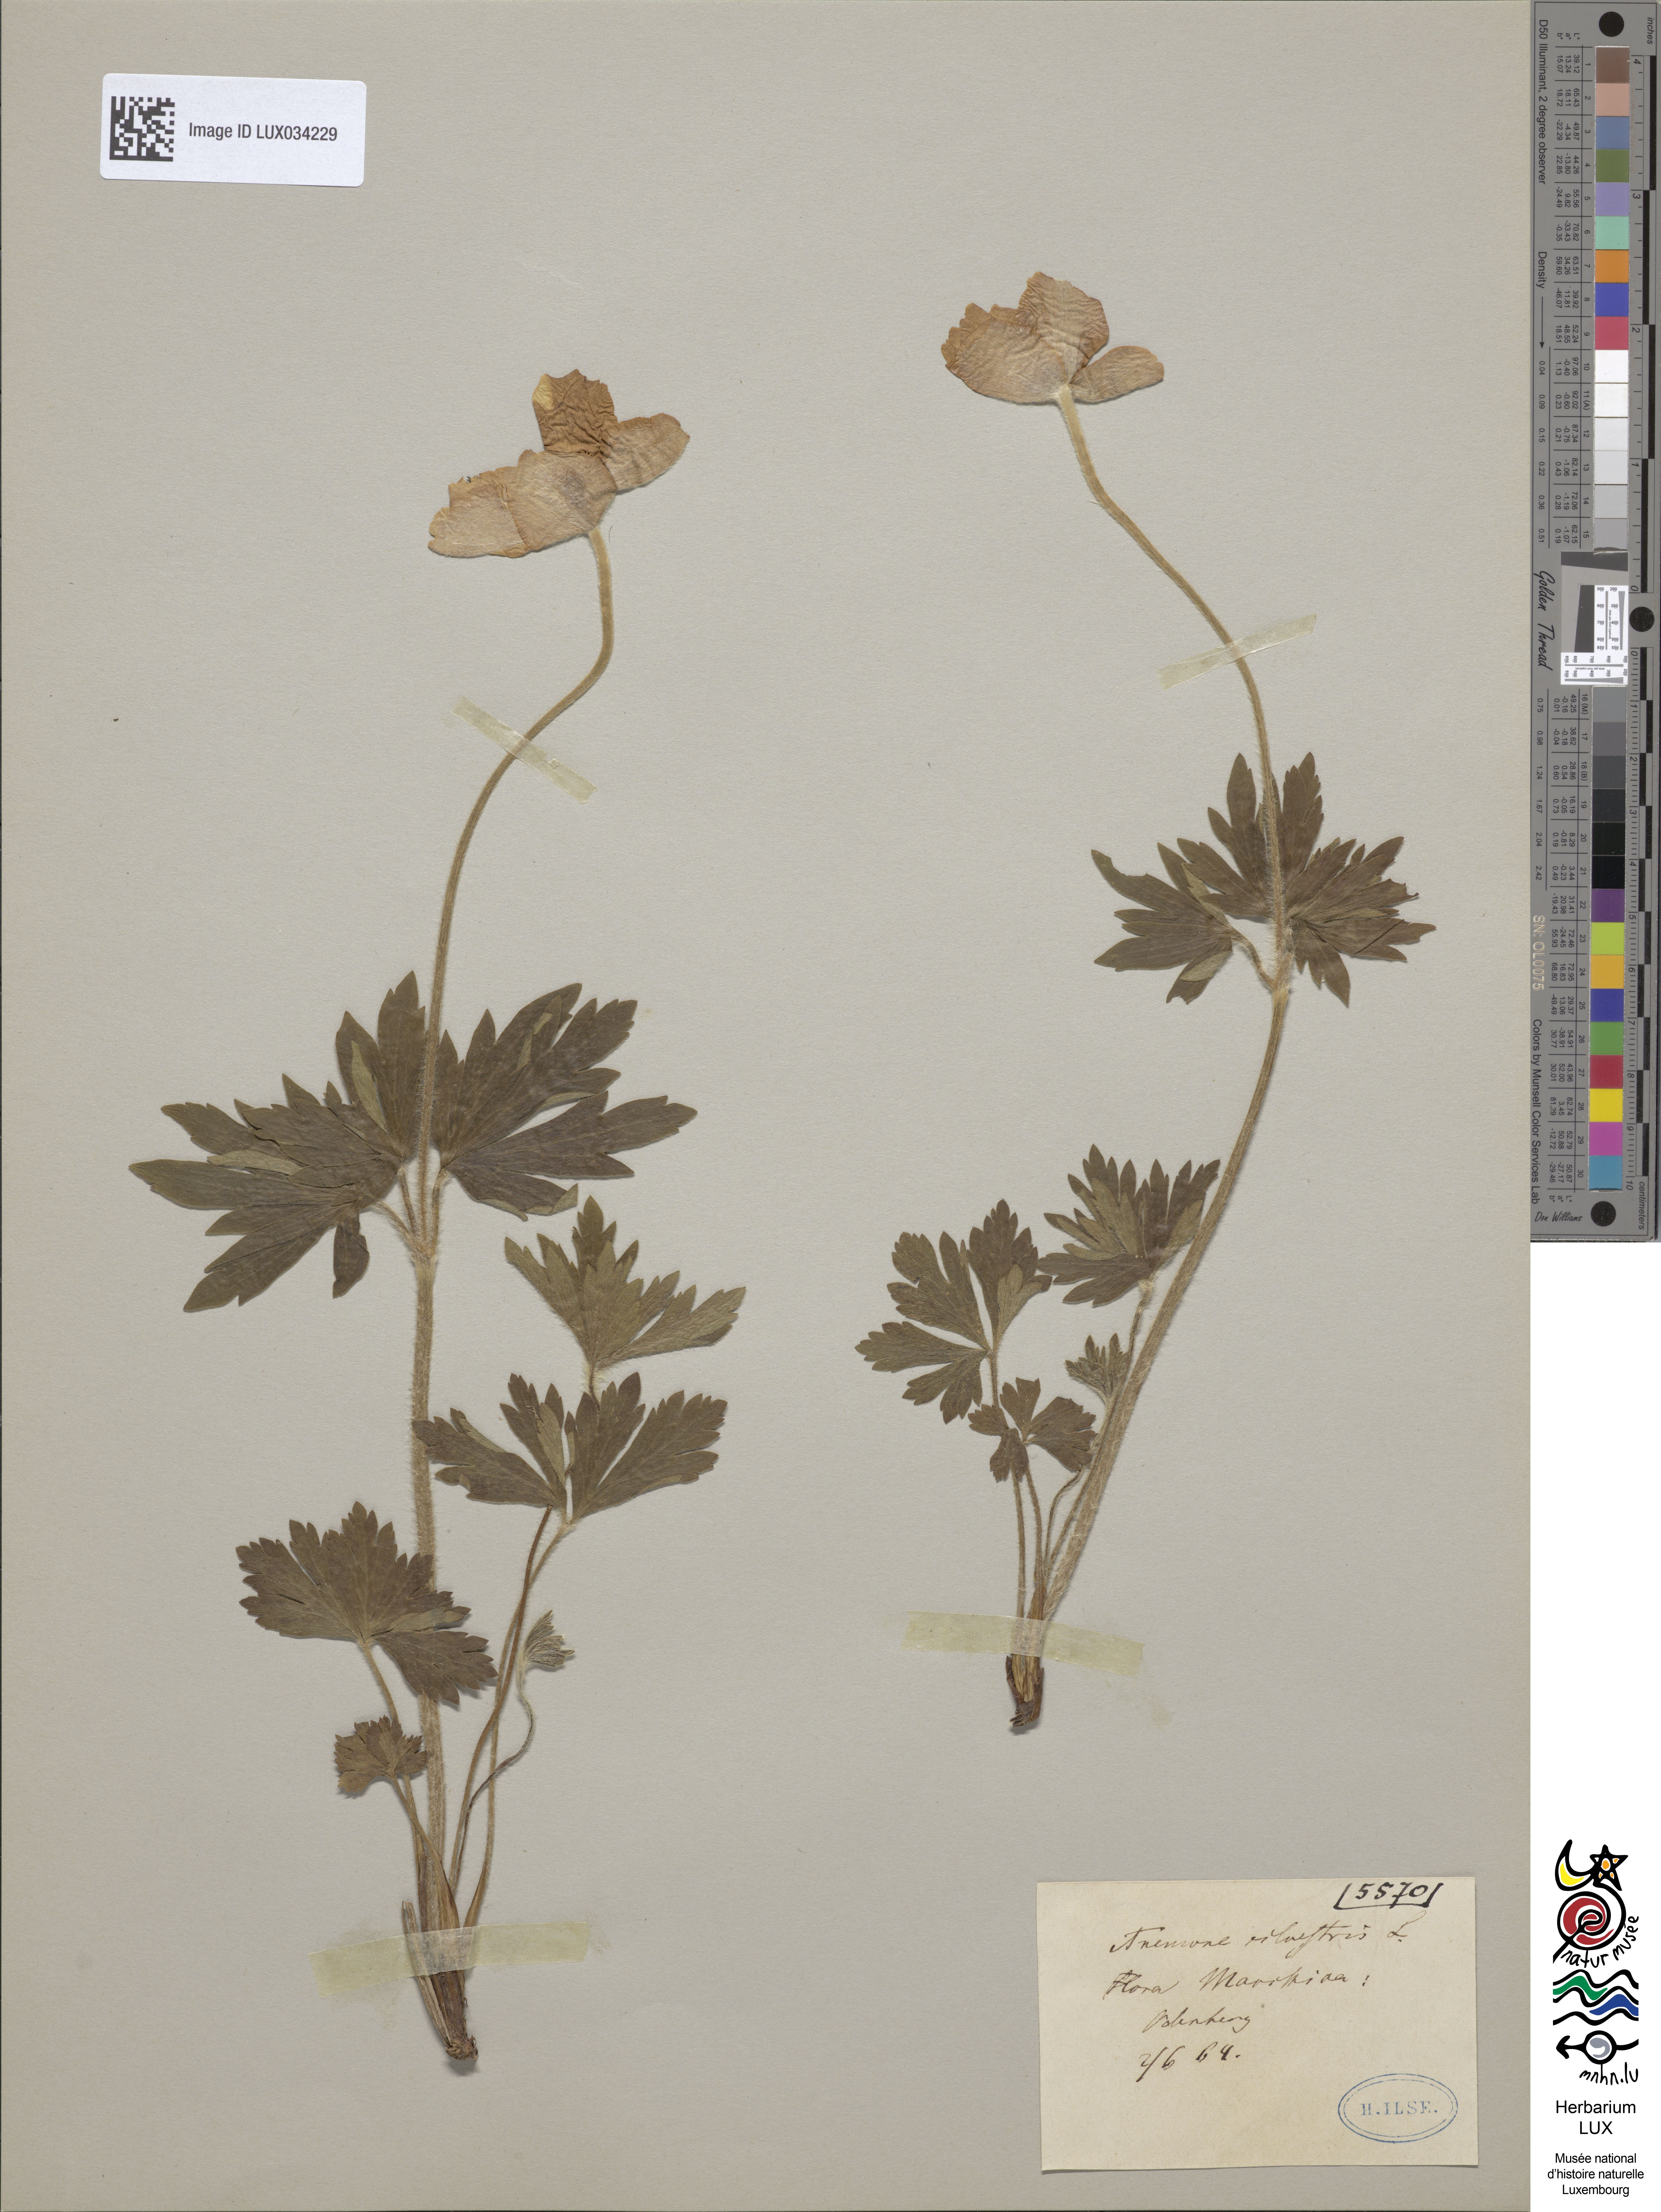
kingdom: Plantae
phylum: Tracheophyta
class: Magnoliopsida
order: Ranunculales
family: Ranunculaceae
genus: Anemone
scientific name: Anemone sylvestris
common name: Snowdrop anemone
